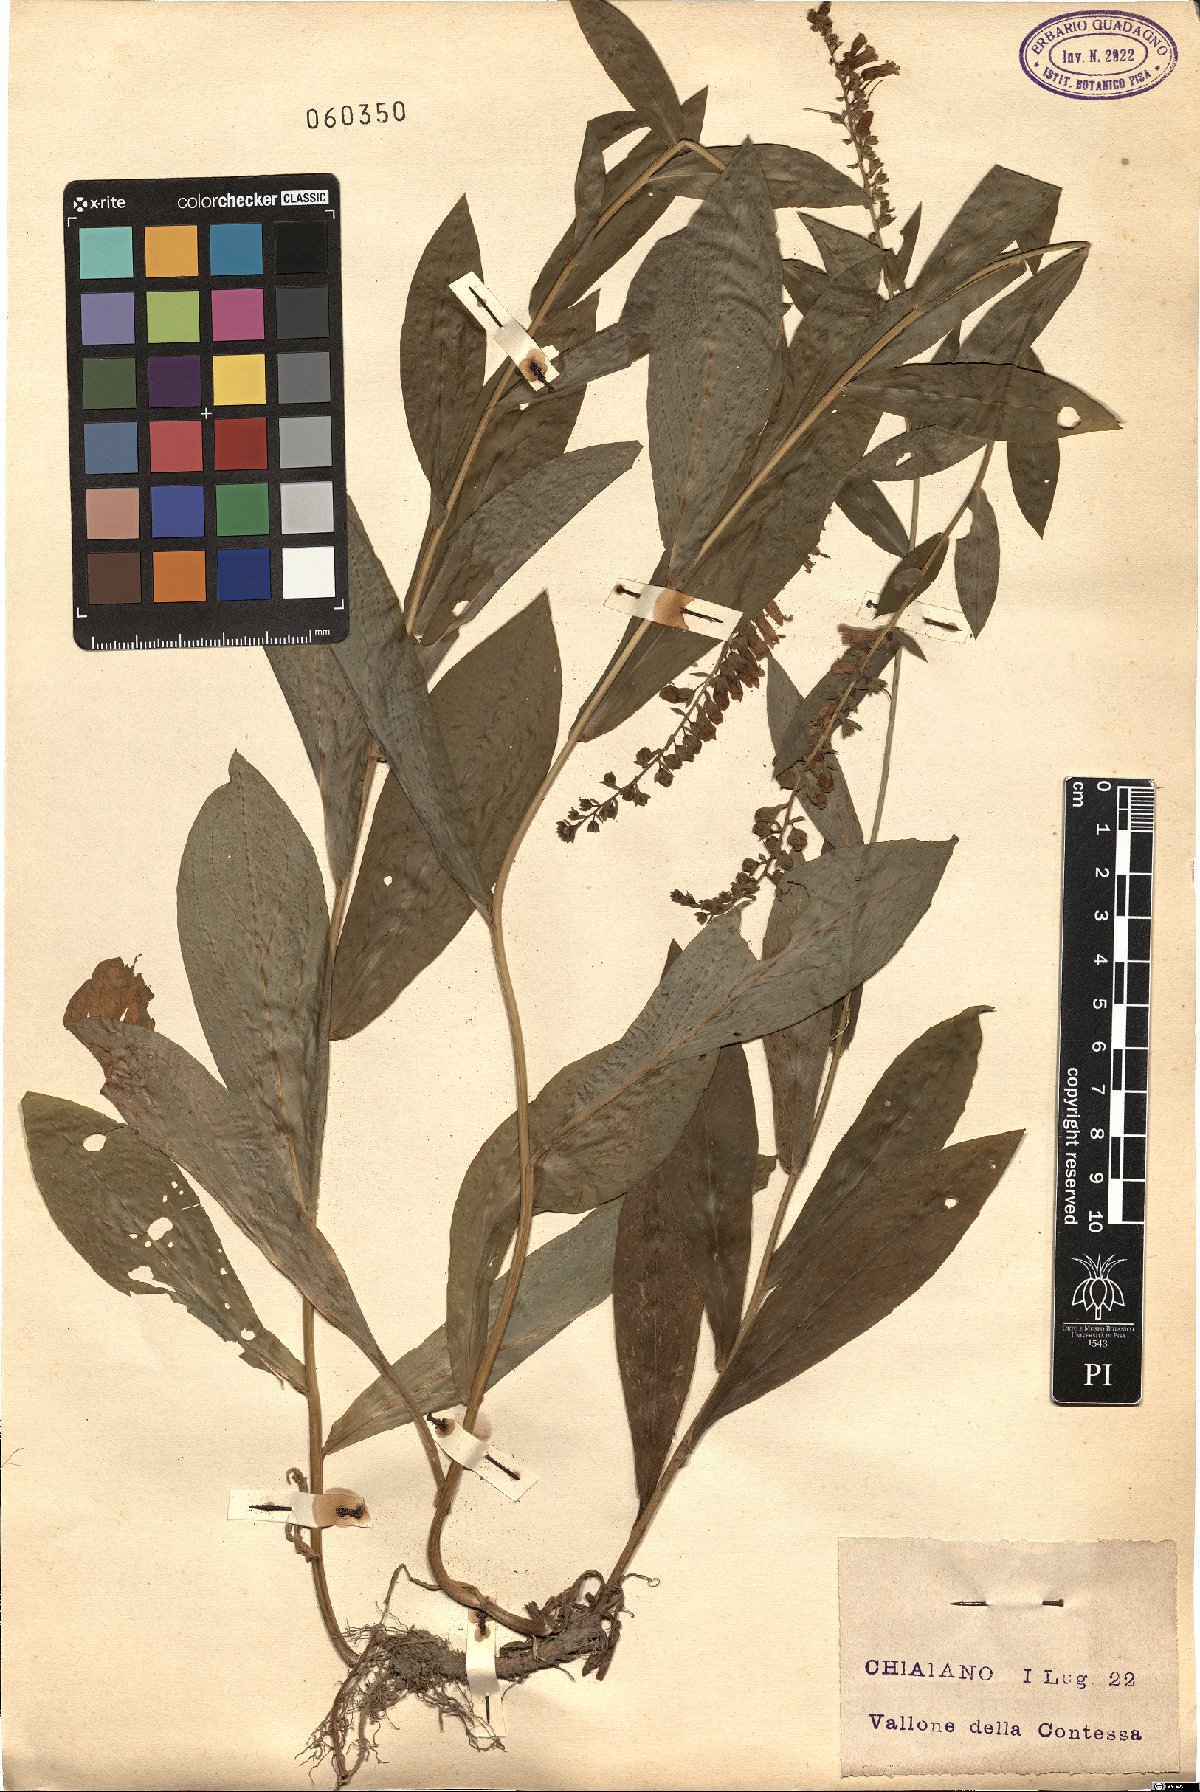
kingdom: Plantae
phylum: Tracheophyta
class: Magnoliopsida
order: Lamiales
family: Plantaginaceae
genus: Digitalis
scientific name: Digitalis lutea
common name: Straw foxglove
